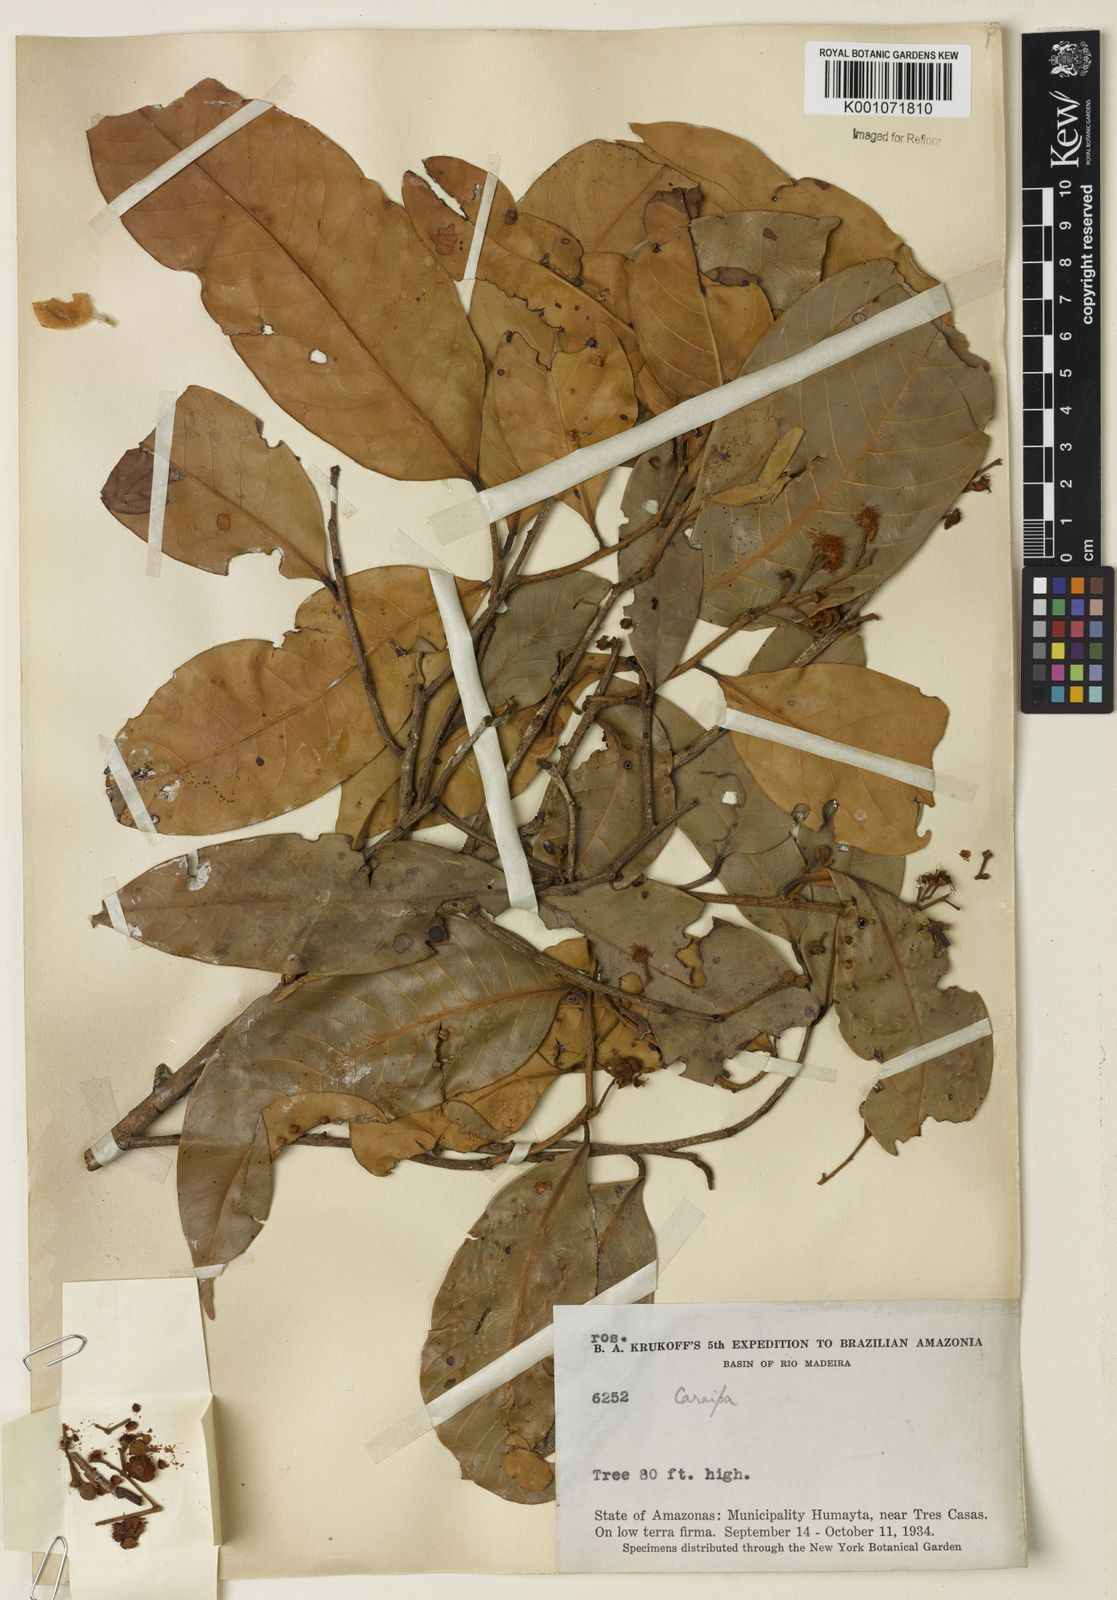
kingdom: Plantae
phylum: Tracheophyta
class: Liliopsida
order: Poales
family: Cyperaceae
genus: Carex
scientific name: Carex atrofusca
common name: Scorched alpine-sedge
